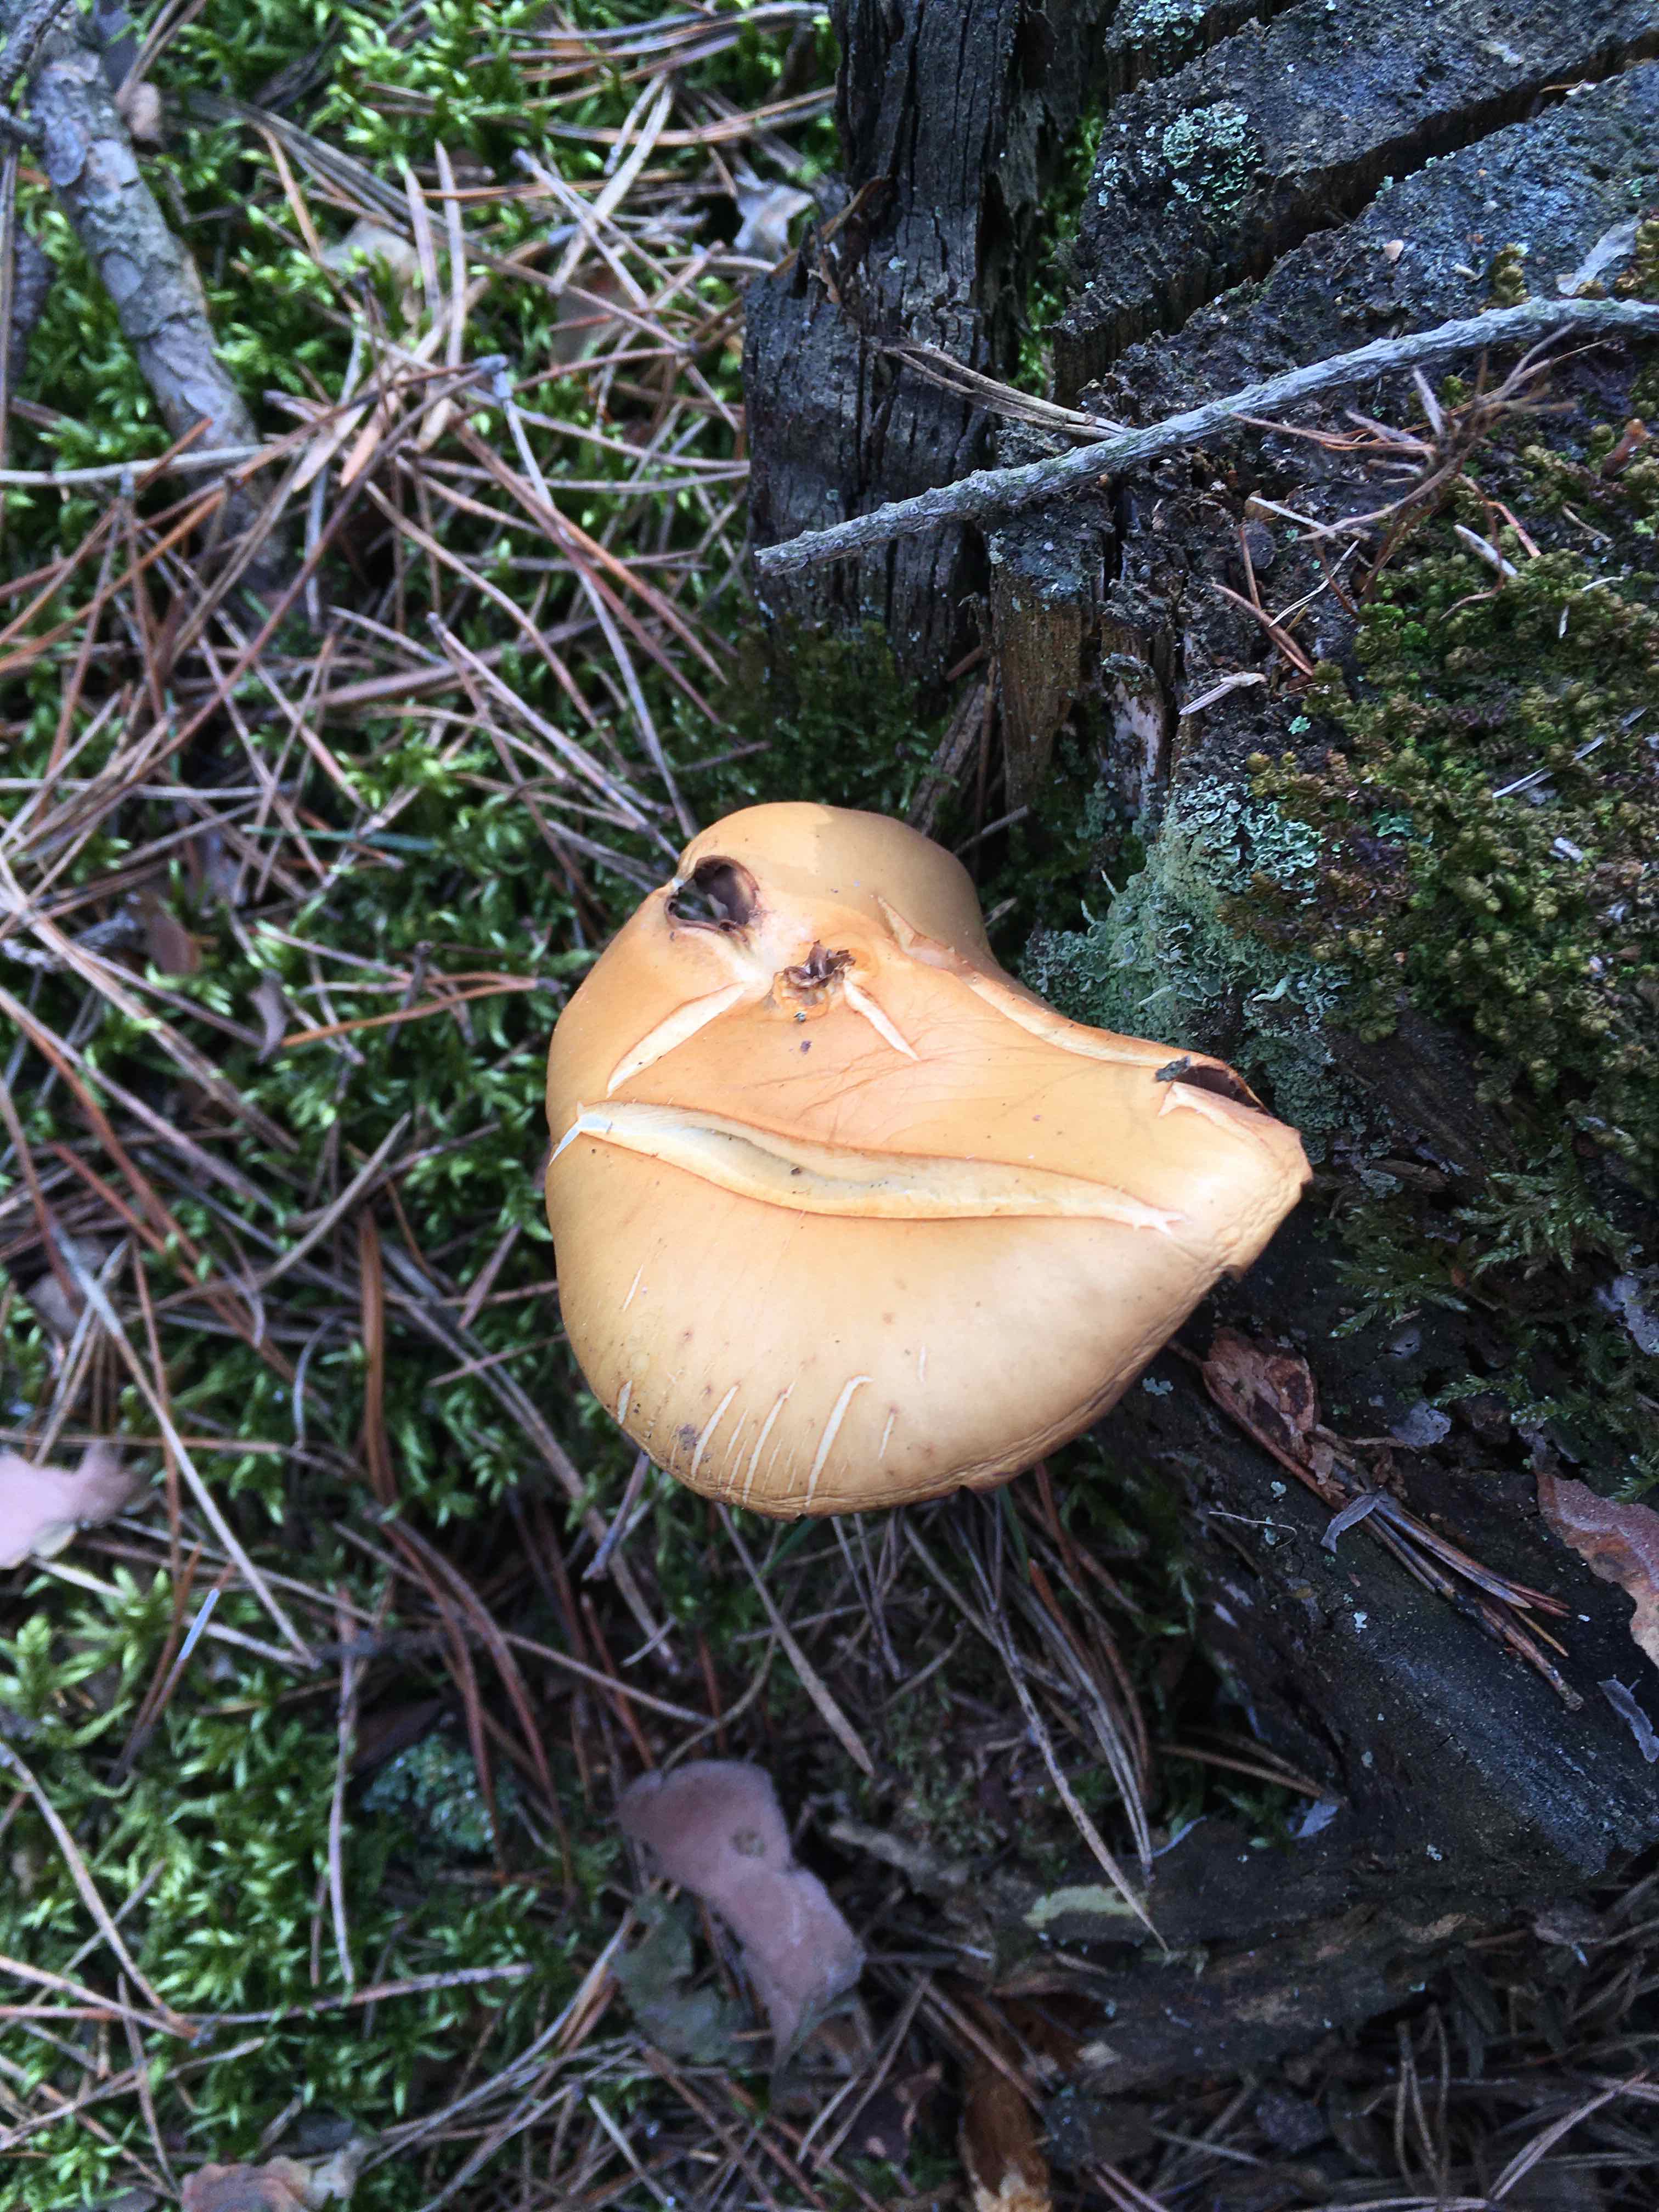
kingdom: Fungi
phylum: Basidiomycota
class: Agaricomycetes
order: Agaricales
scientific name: Agaricales
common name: champignonordenen
